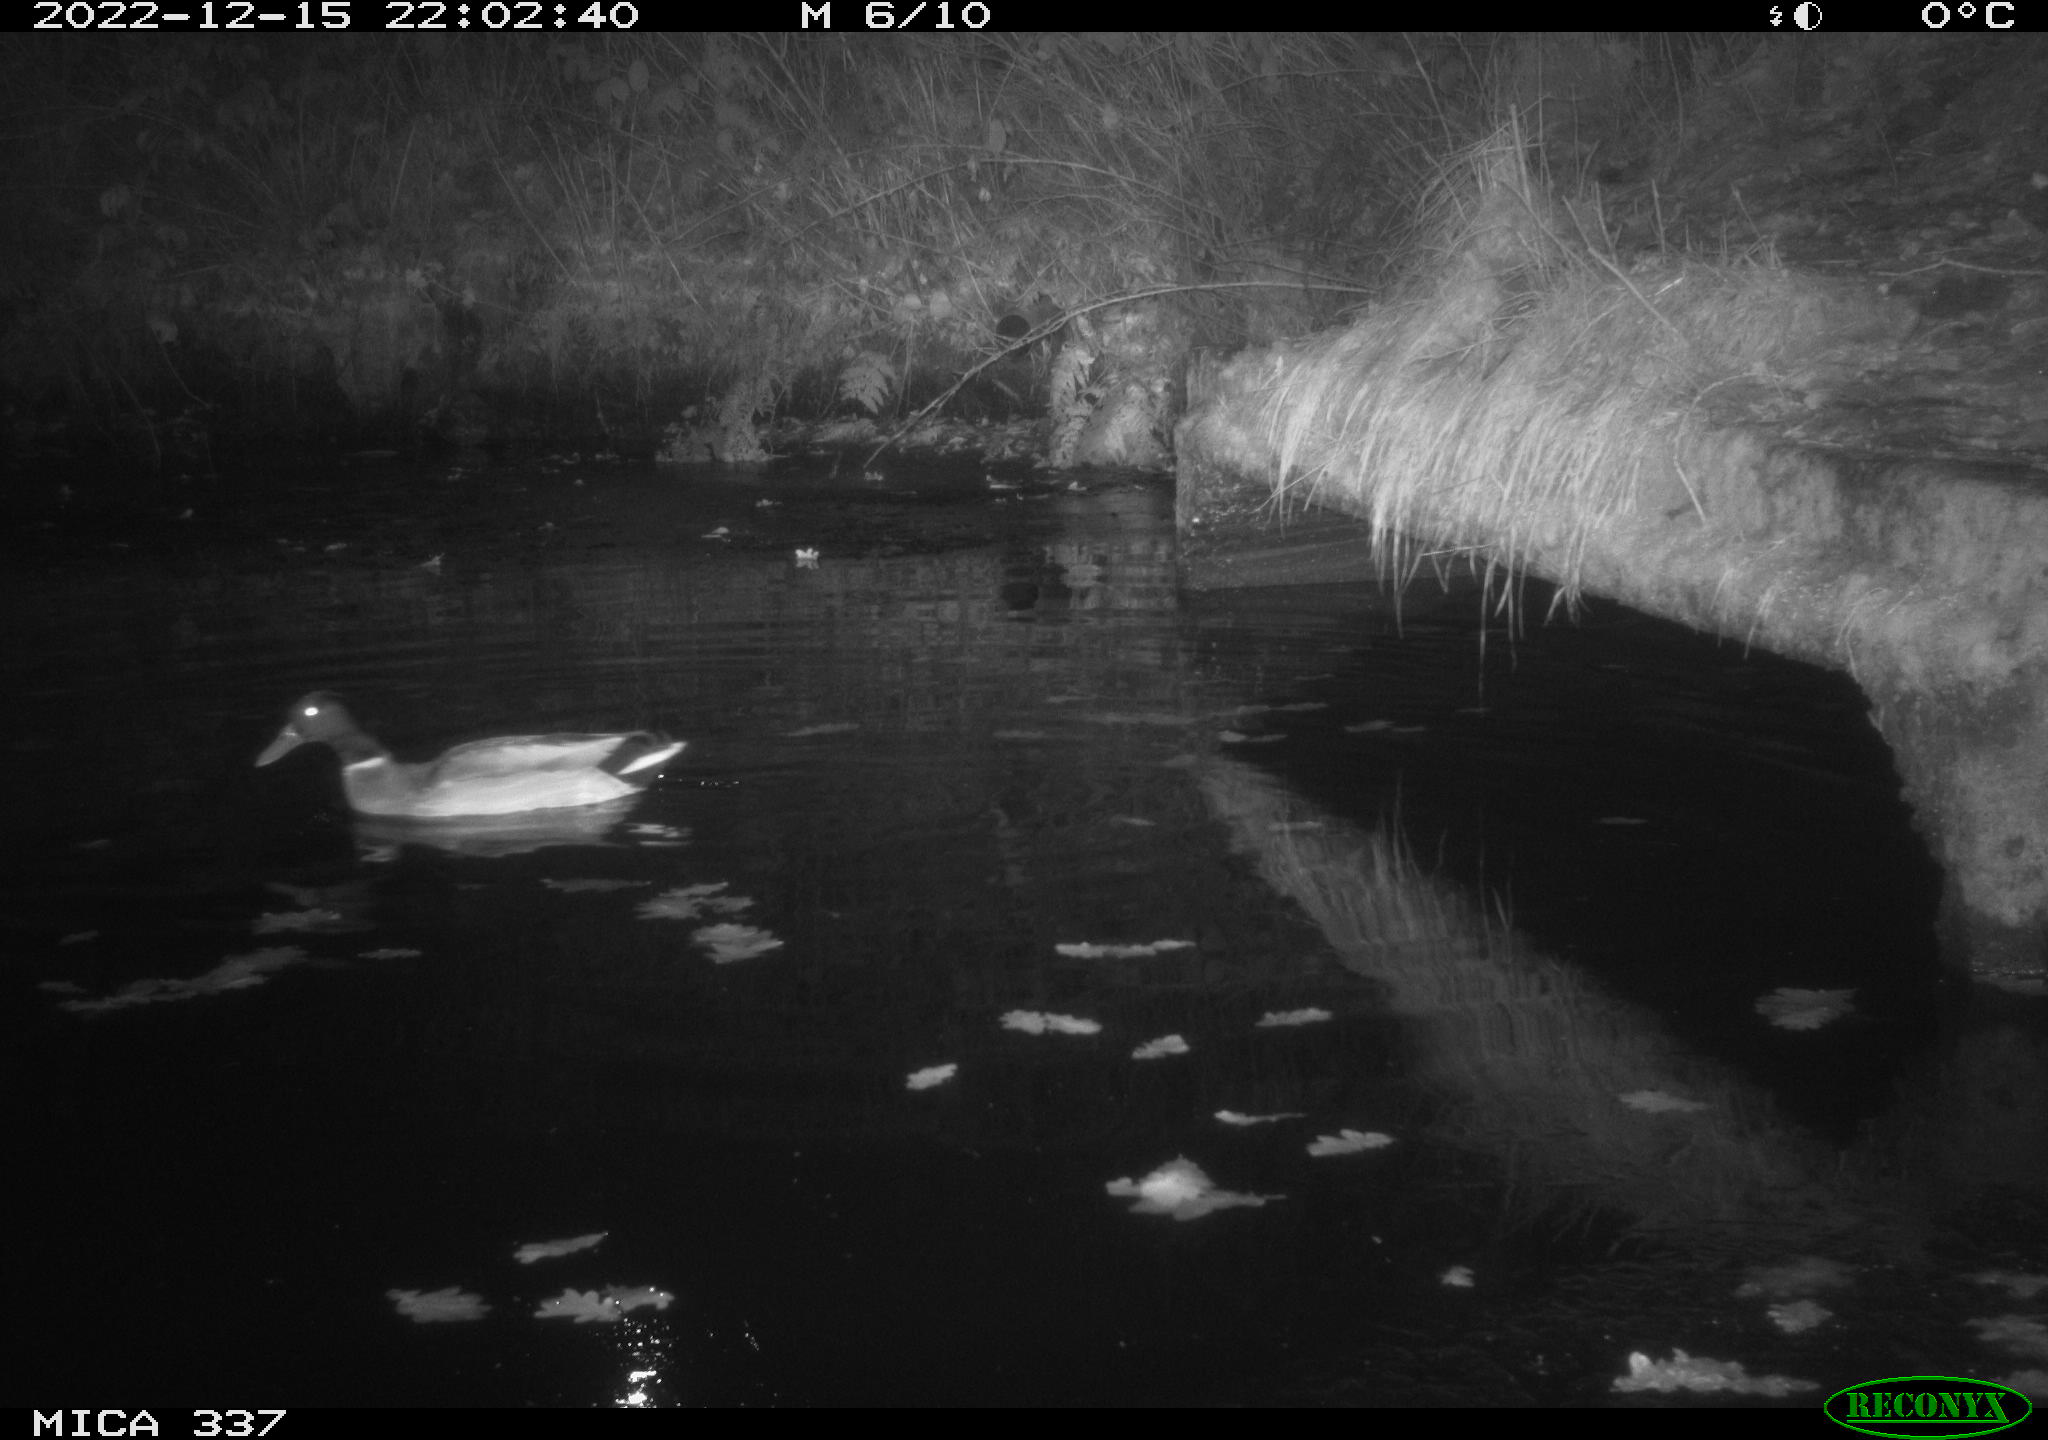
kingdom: Animalia
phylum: Chordata
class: Aves
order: Anseriformes
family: Anatidae
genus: Anas
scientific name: Anas
